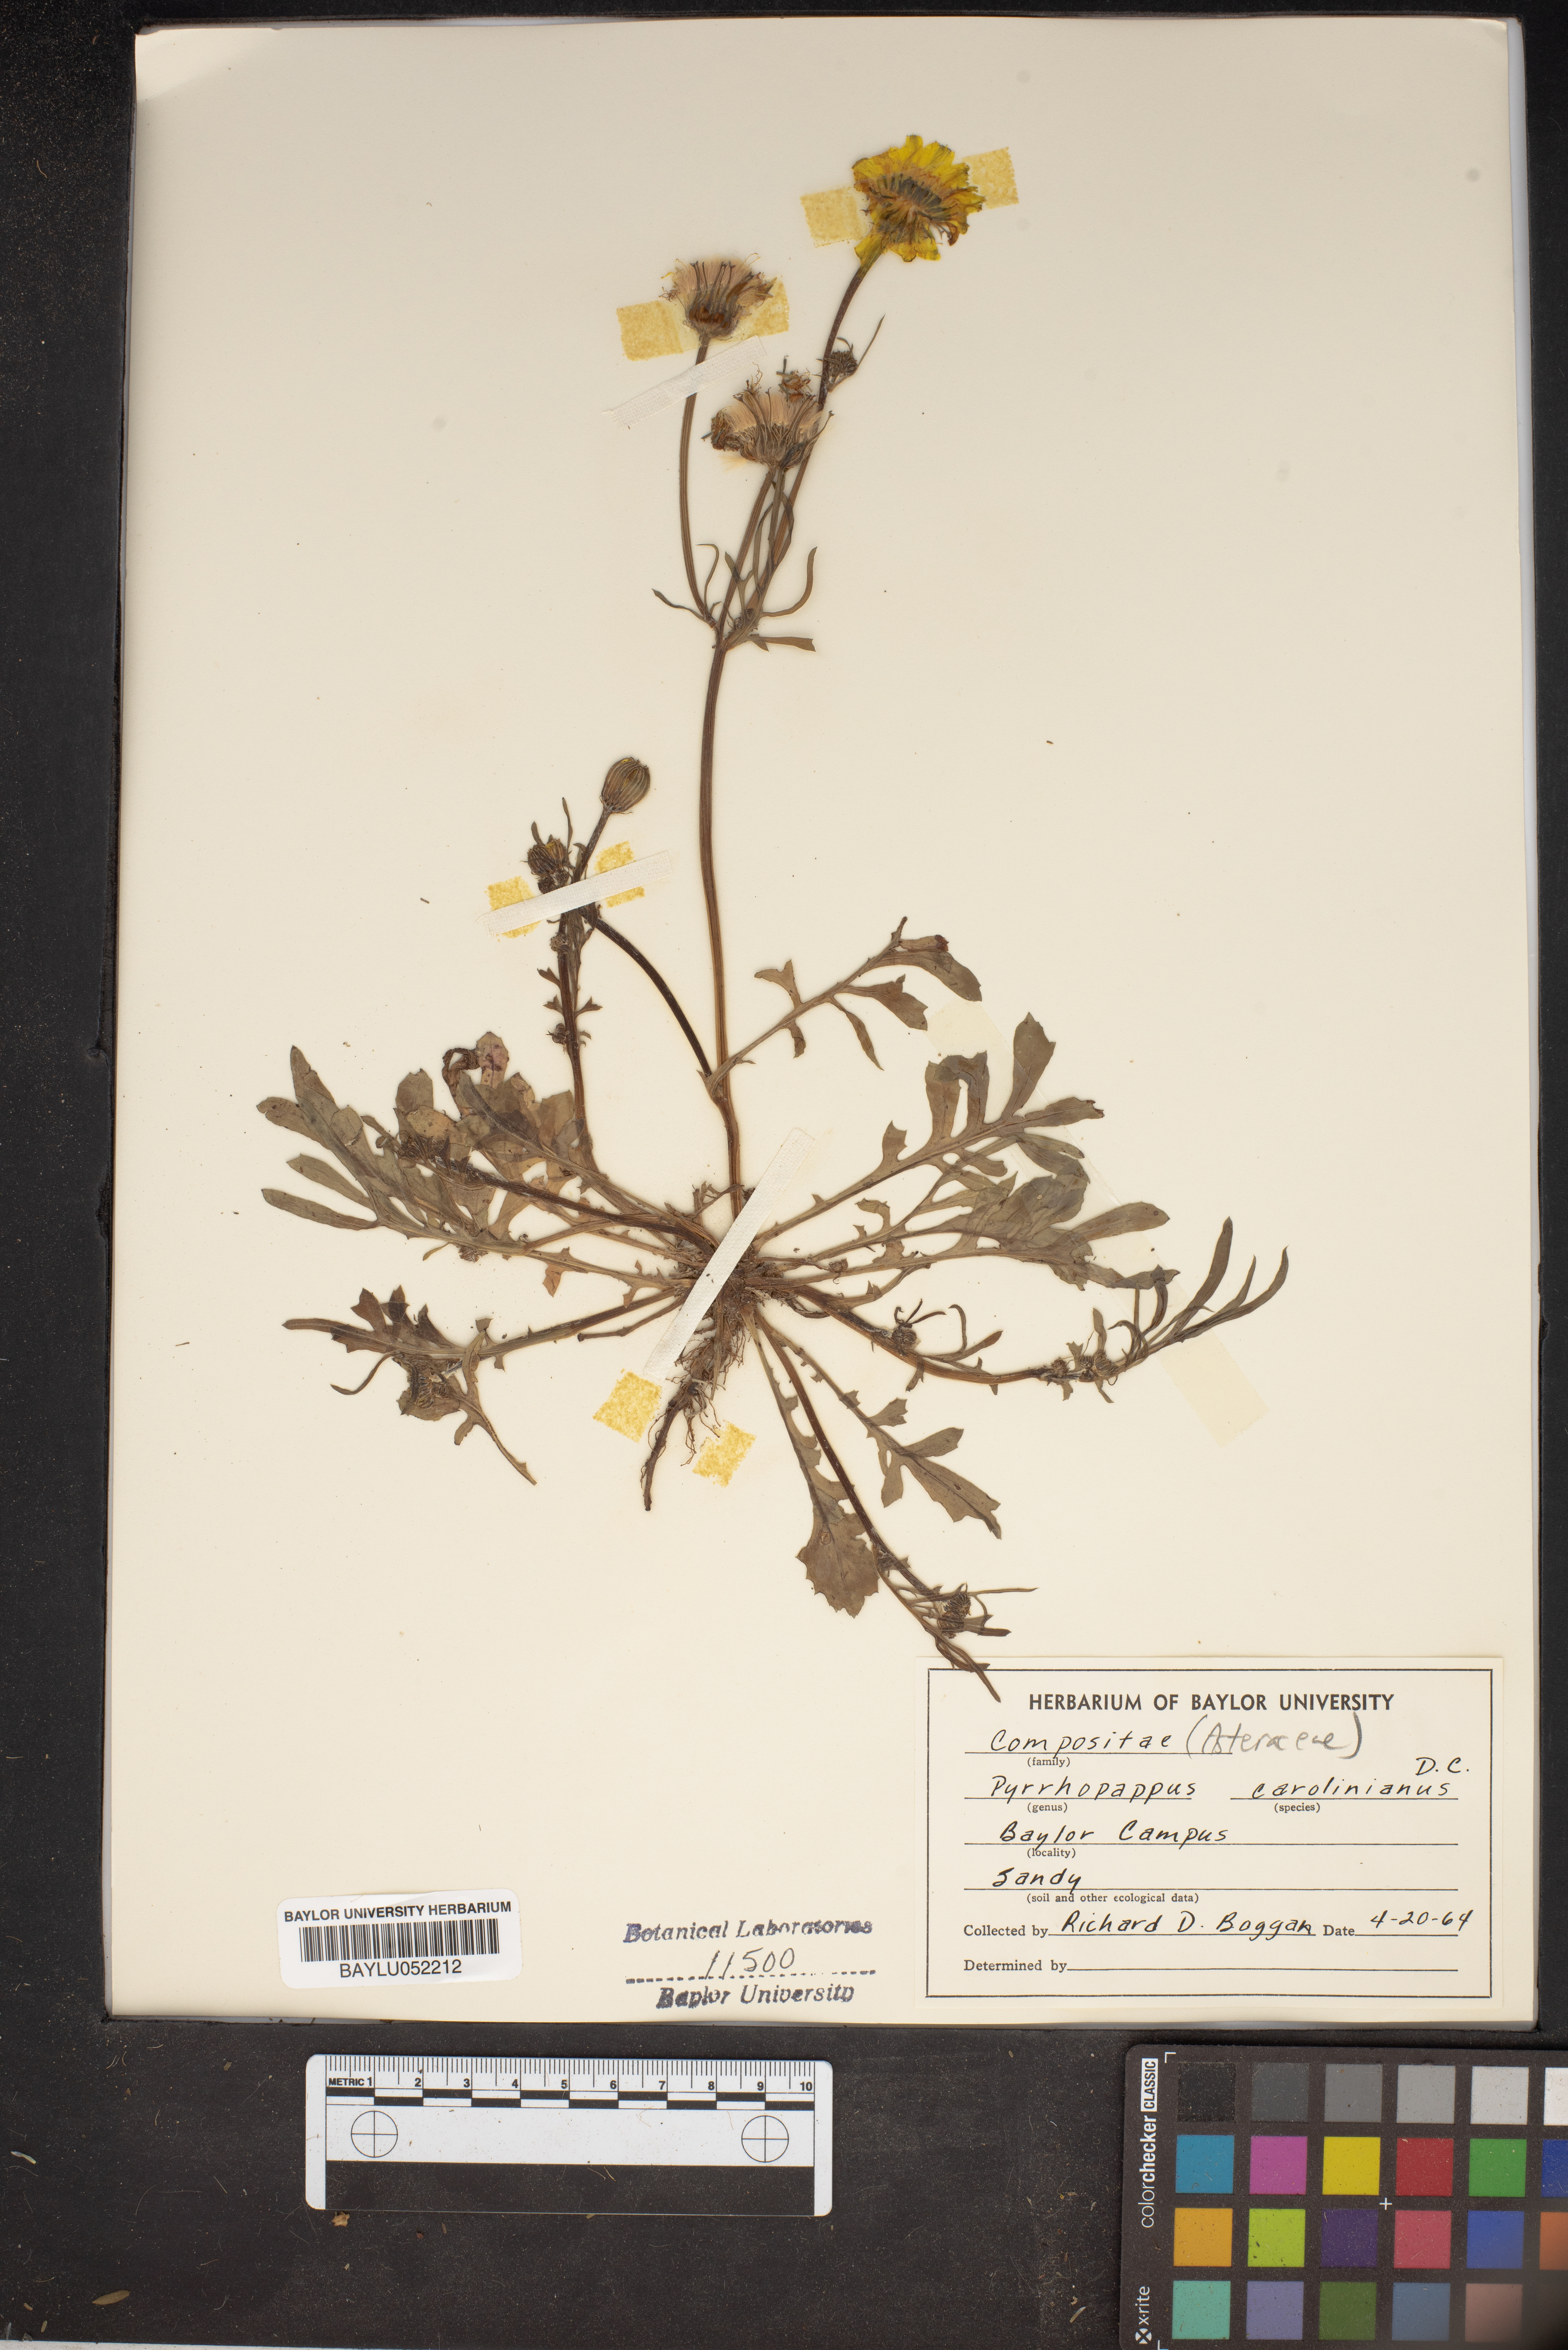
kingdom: Plantae
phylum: Tracheophyta
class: Magnoliopsida
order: Asterales
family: Asteraceae
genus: Pyrrhopappus
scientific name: Pyrrhopappus carolinianus
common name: Carolina desert-chicory
